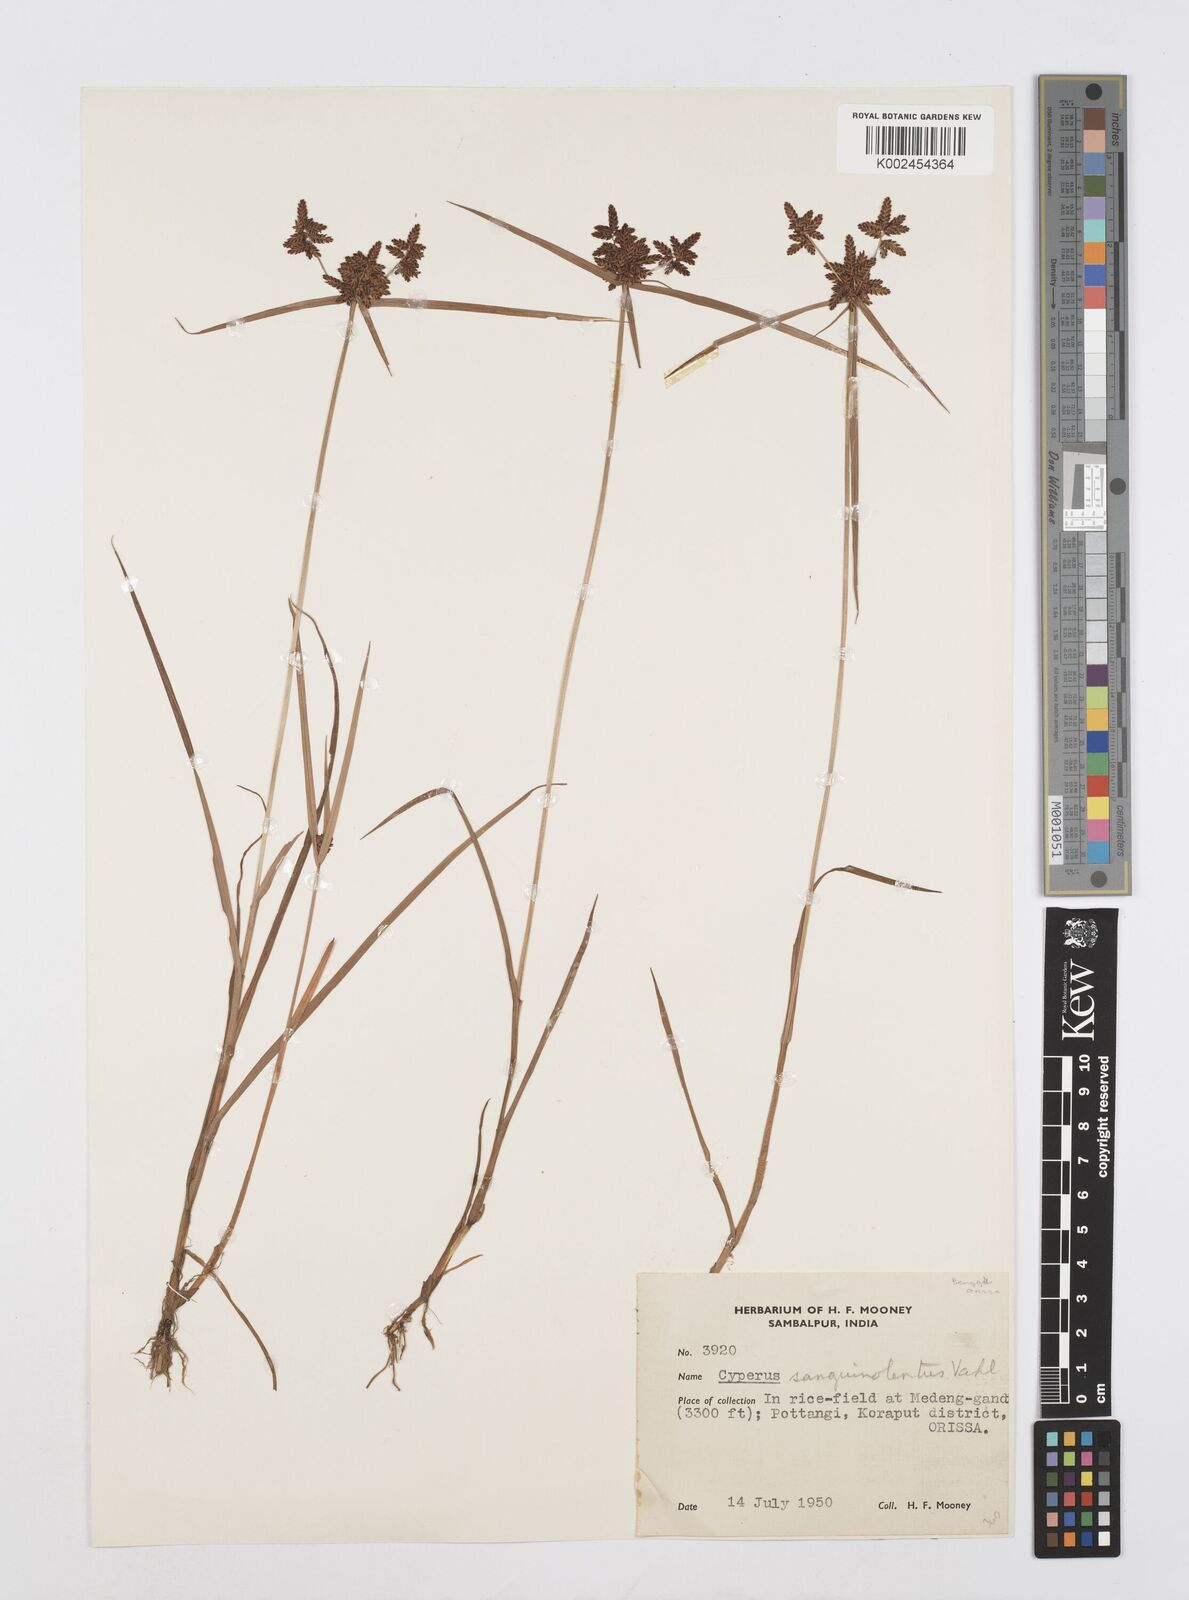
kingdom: Plantae
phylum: Tracheophyta
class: Liliopsida
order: Poales
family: Cyperaceae
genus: Cyperus
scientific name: Cyperus sanguinolentus
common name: Purpleglume flatsedge
